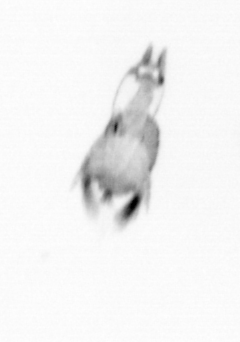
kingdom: Animalia
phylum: Arthropoda
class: Copepoda
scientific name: Copepoda
